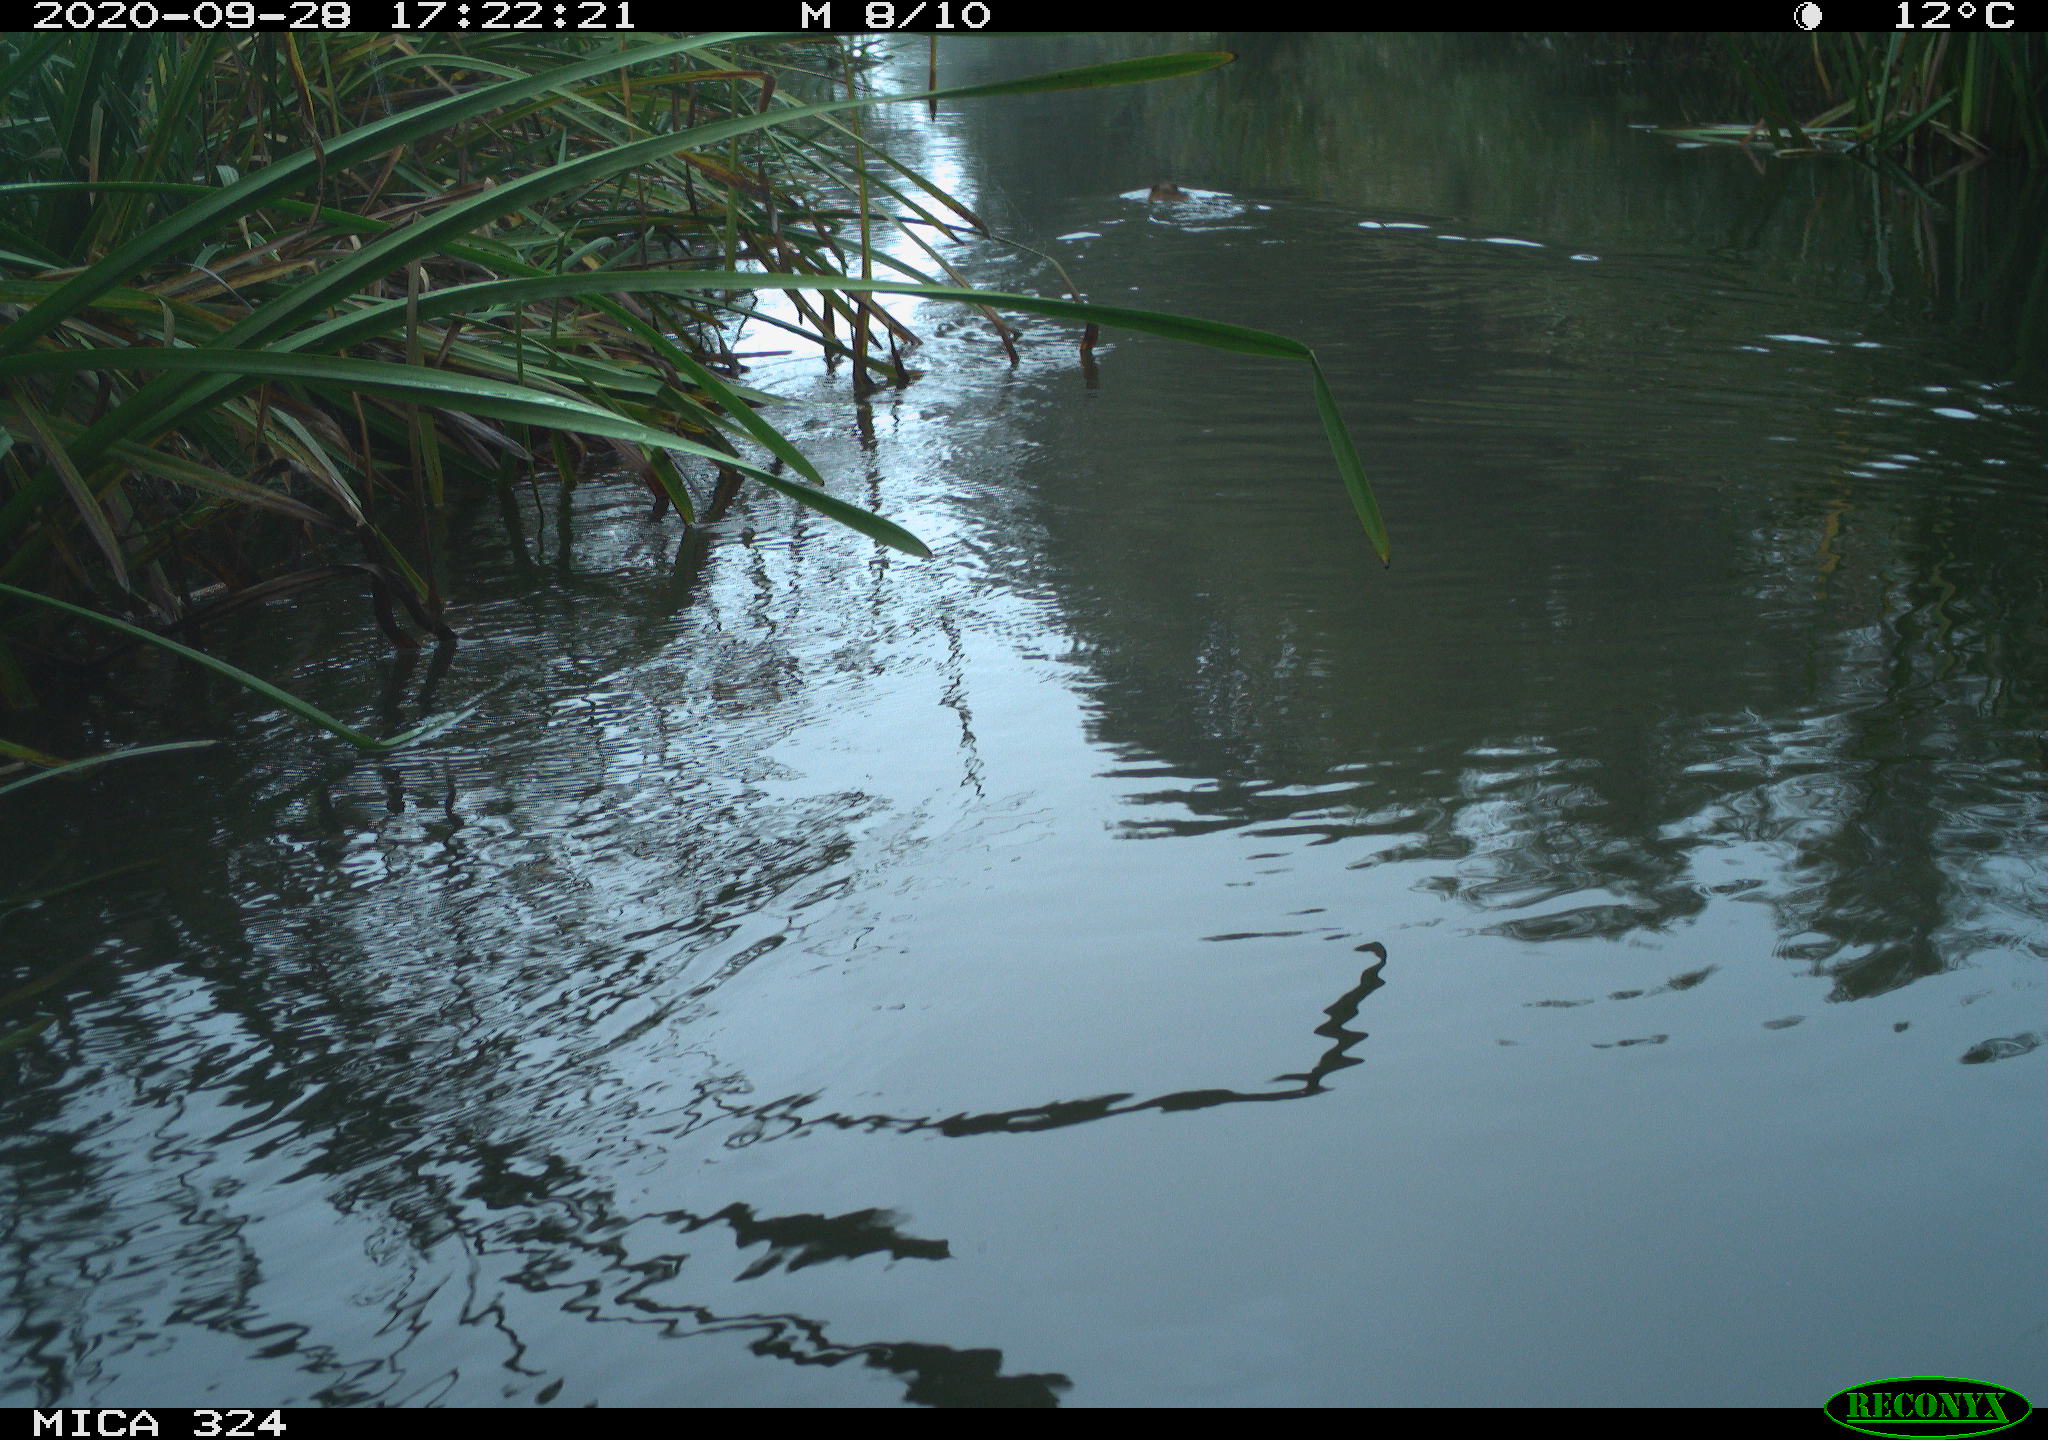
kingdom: Animalia
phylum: Chordata
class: Mammalia
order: Rodentia
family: Myocastoridae
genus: Myocastor
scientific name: Myocastor coypus
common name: Coypu
